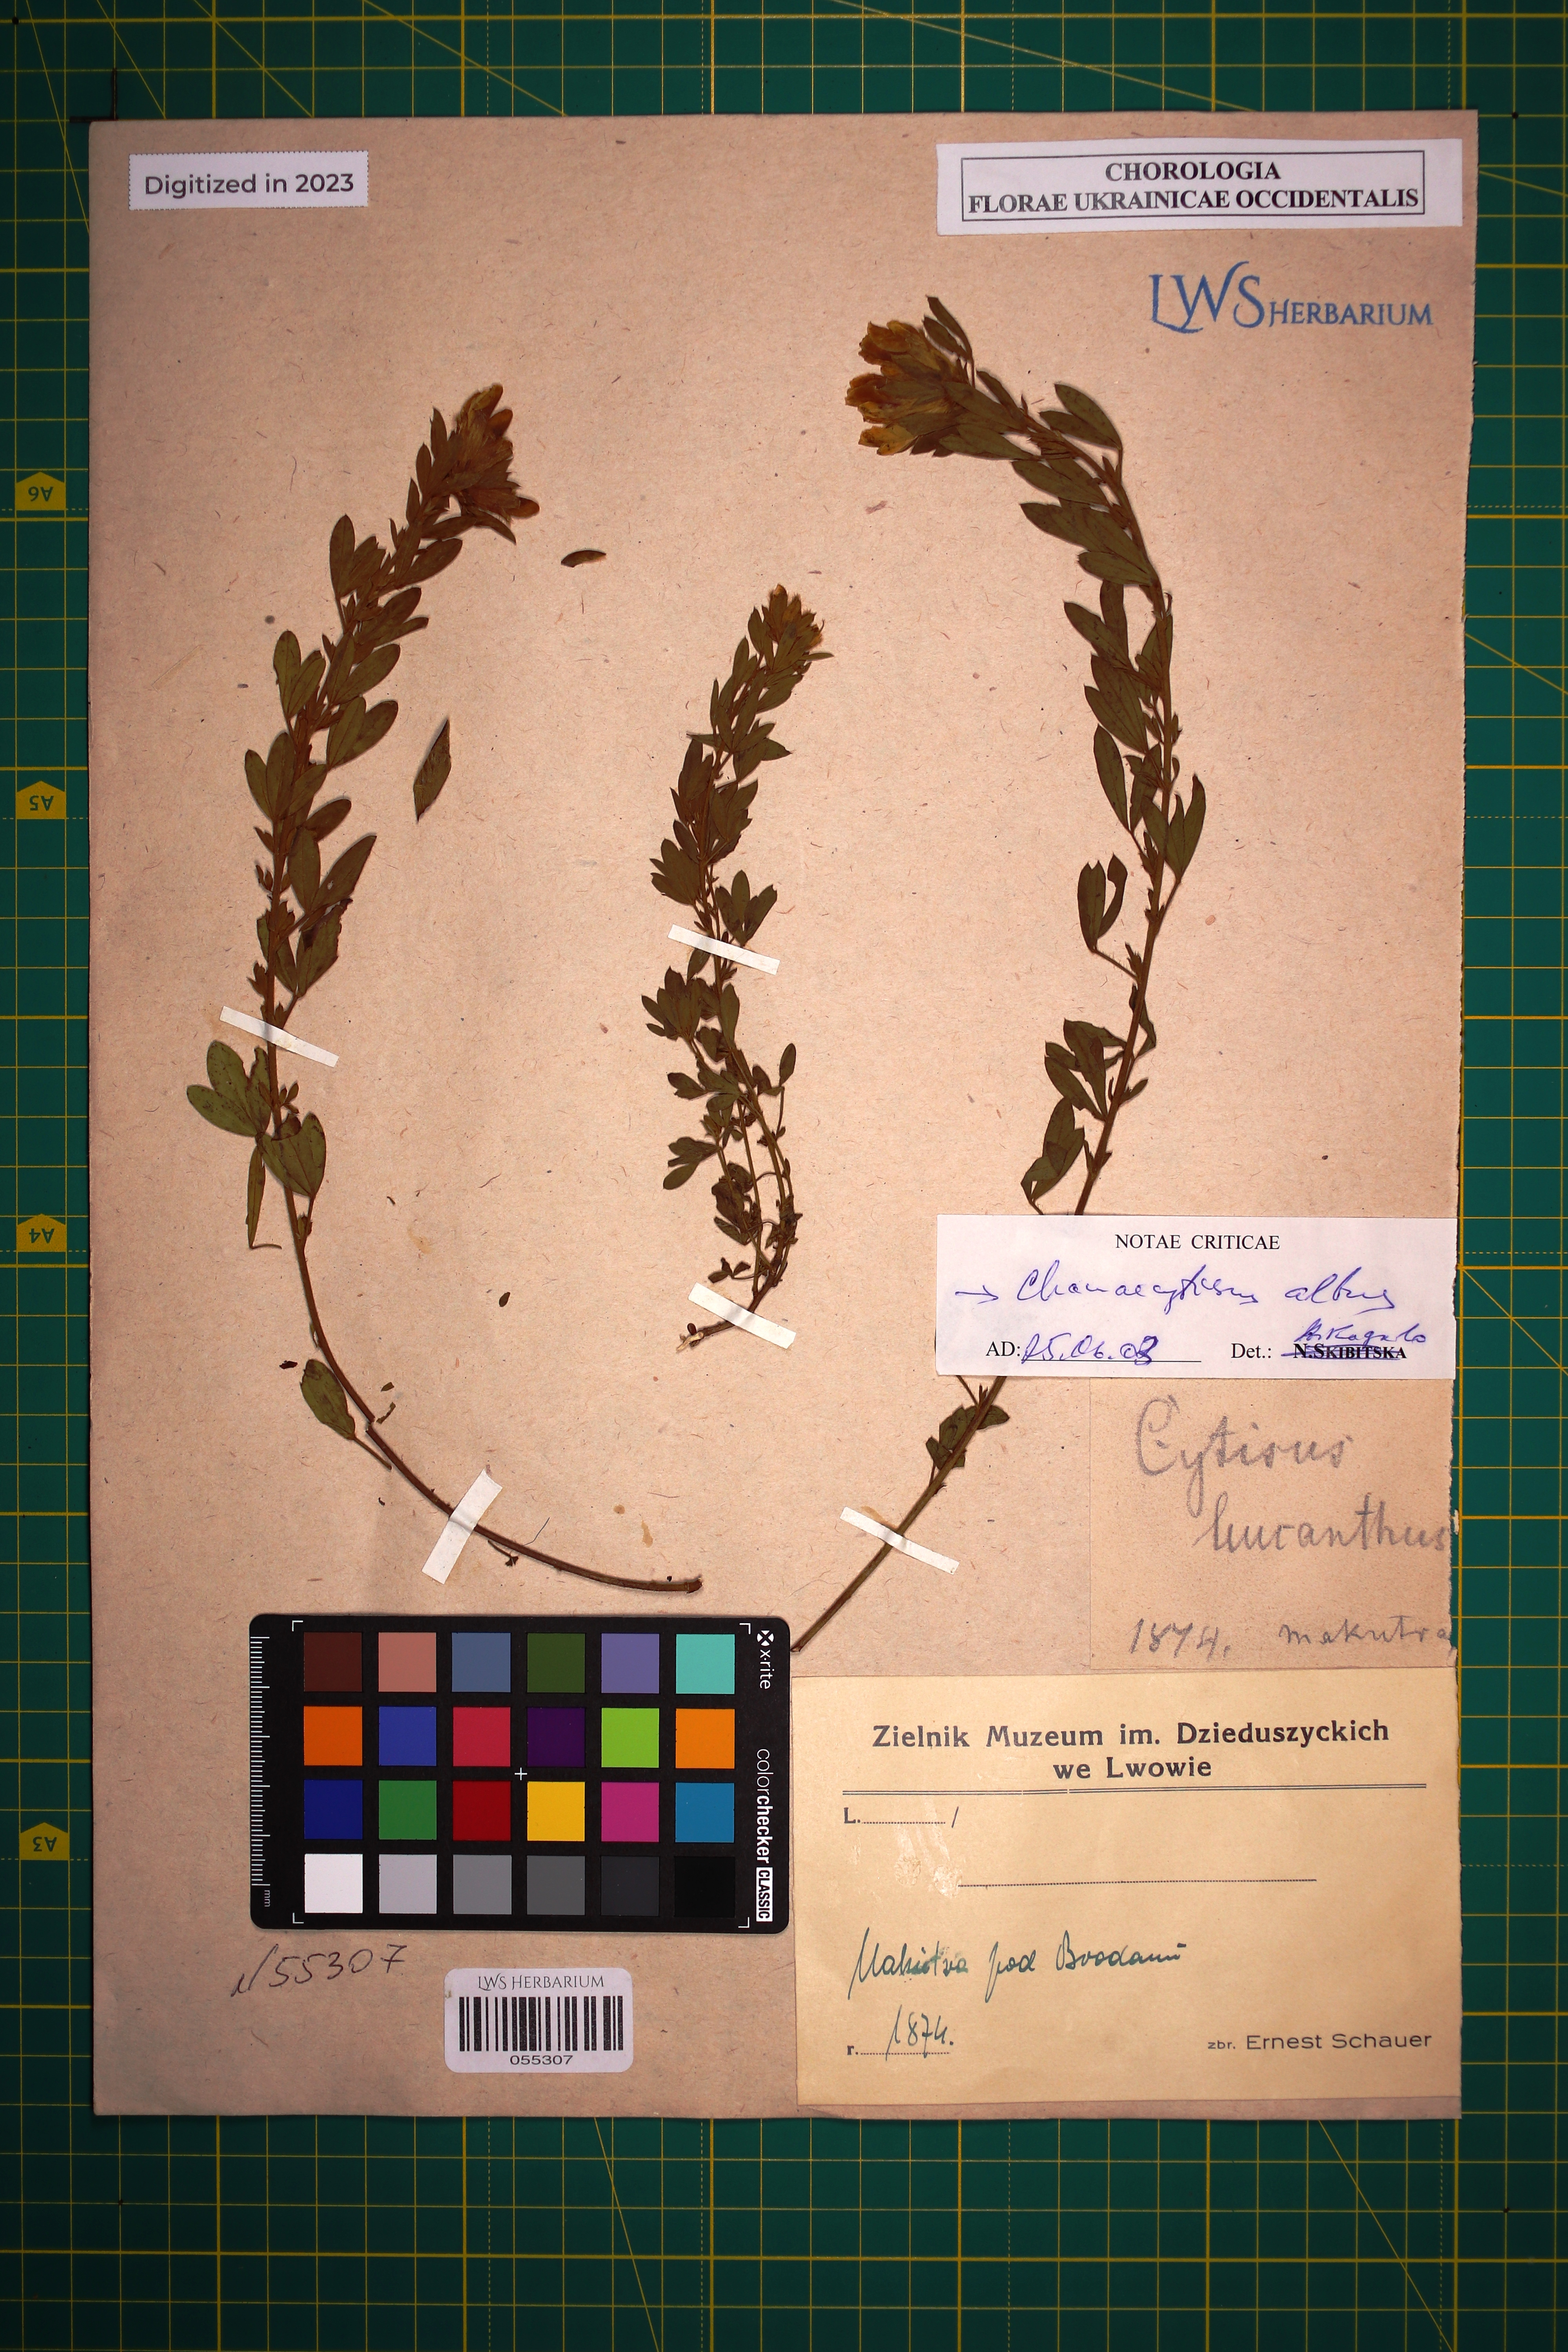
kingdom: Plantae
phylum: Tracheophyta
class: Magnoliopsida
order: Fabales
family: Fabaceae
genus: Chamaecytisus
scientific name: Chamaecytisus albus
